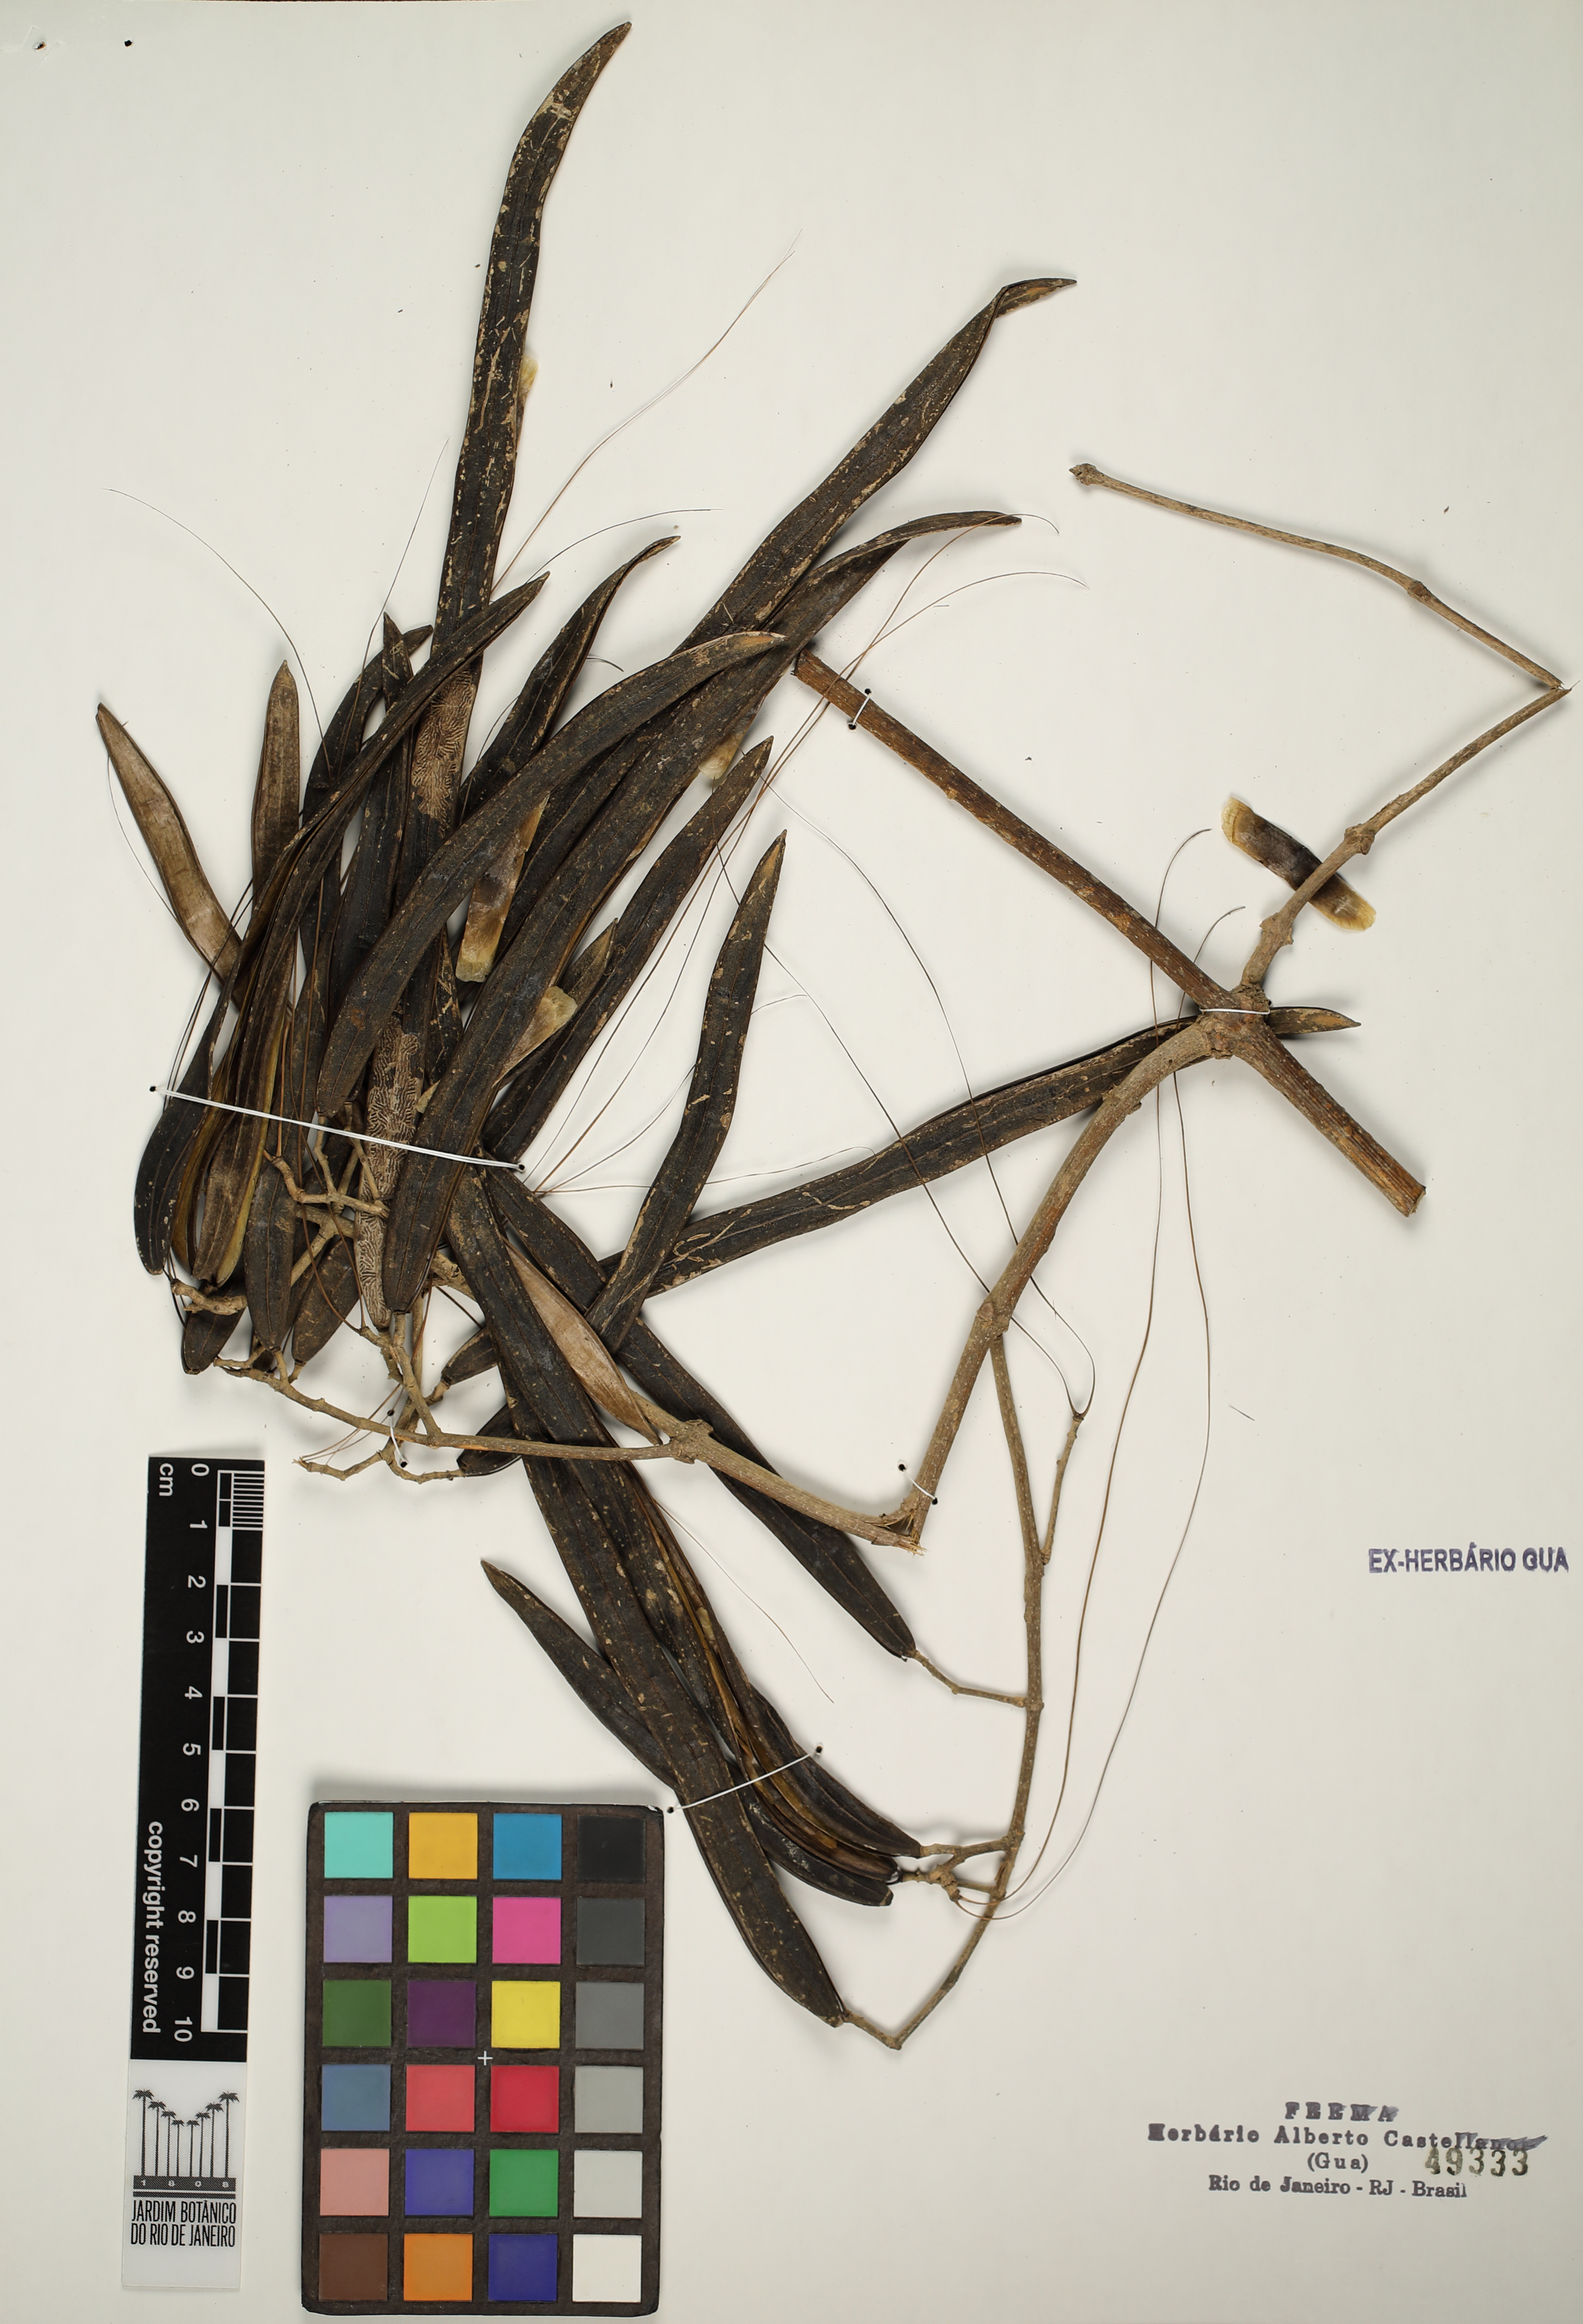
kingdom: Plantae
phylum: Tracheophyta
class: Magnoliopsida
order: Lamiales
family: Bignoniaceae
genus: Fridericia
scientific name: Fridericia
